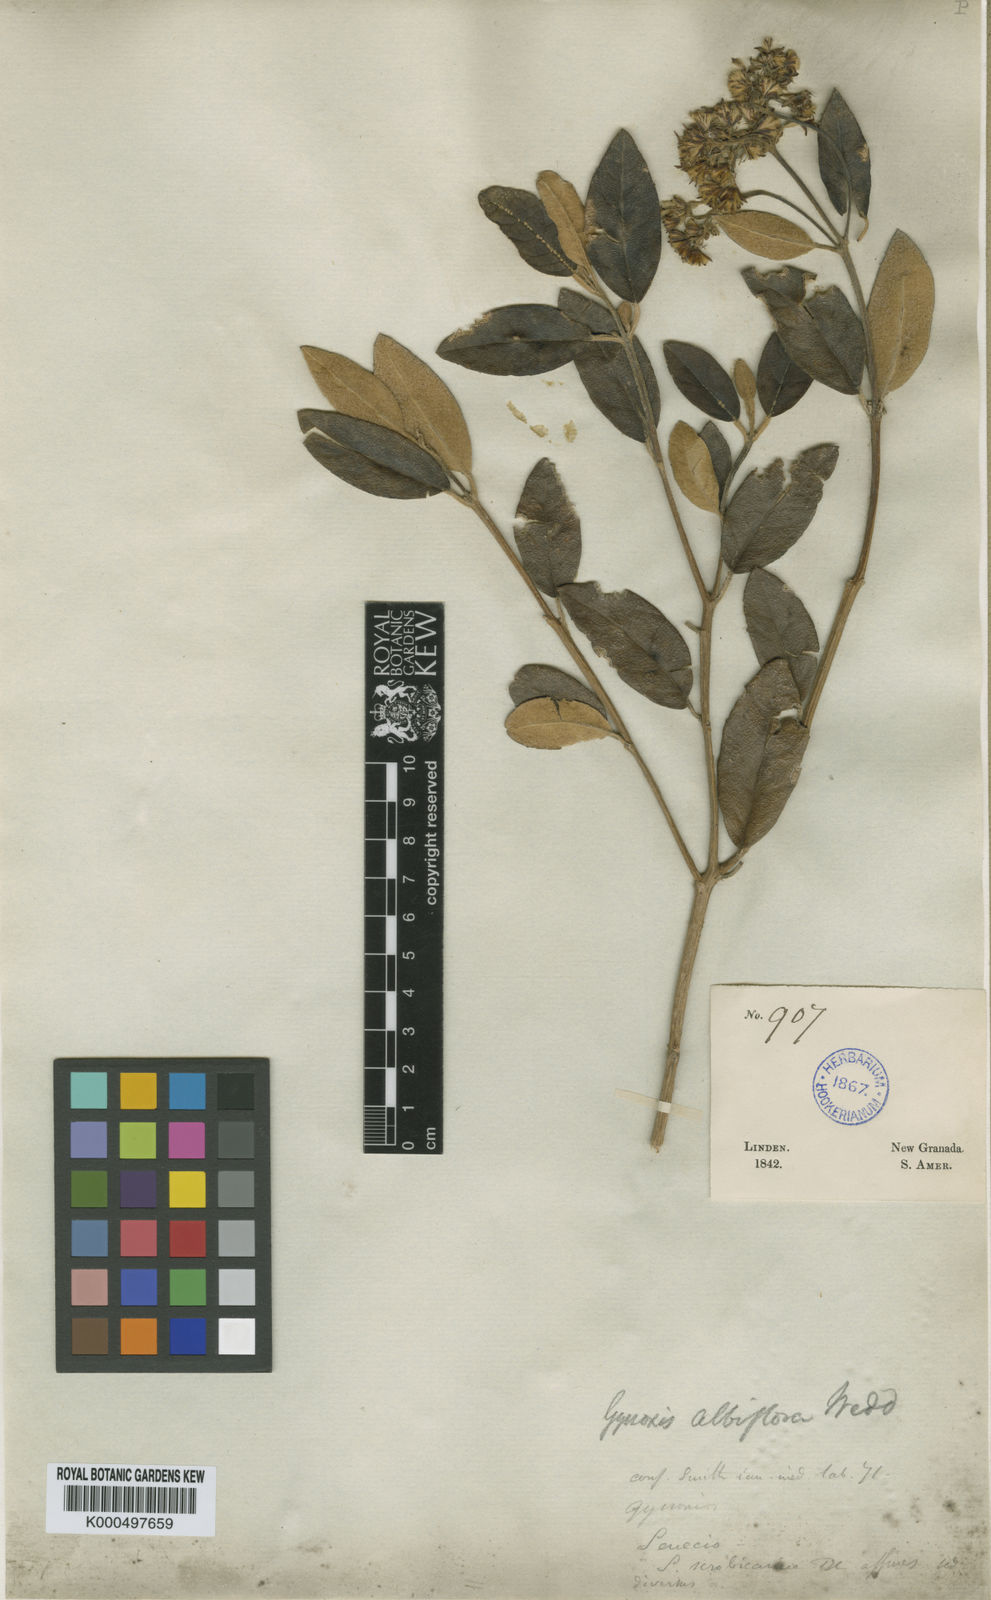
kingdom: Plantae
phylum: Tracheophyta
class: Magnoliopsida
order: Asterales
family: Asteraceae
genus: Aequatorium
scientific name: Aequatorium
